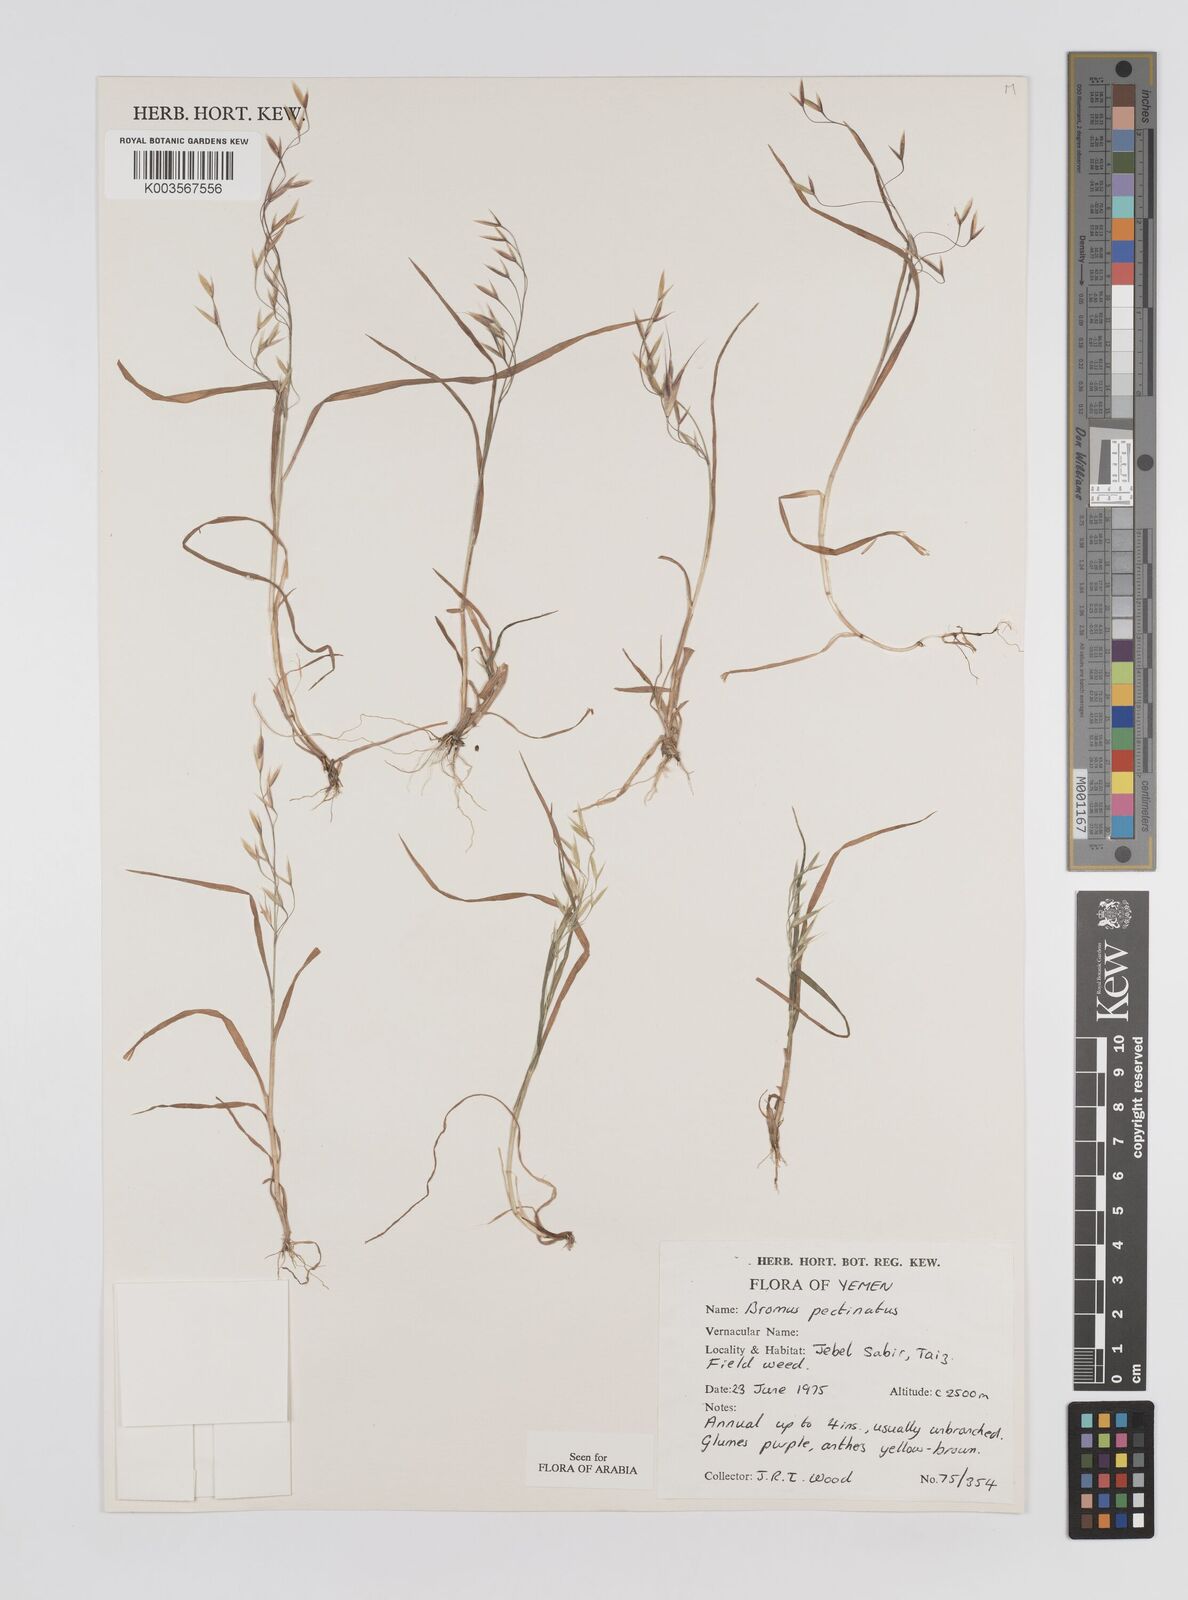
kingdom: Plantae
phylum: Tracheophyta
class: Liliopsida
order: Poales
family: Poaceae
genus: Bromus
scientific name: Bromus pectinatus
